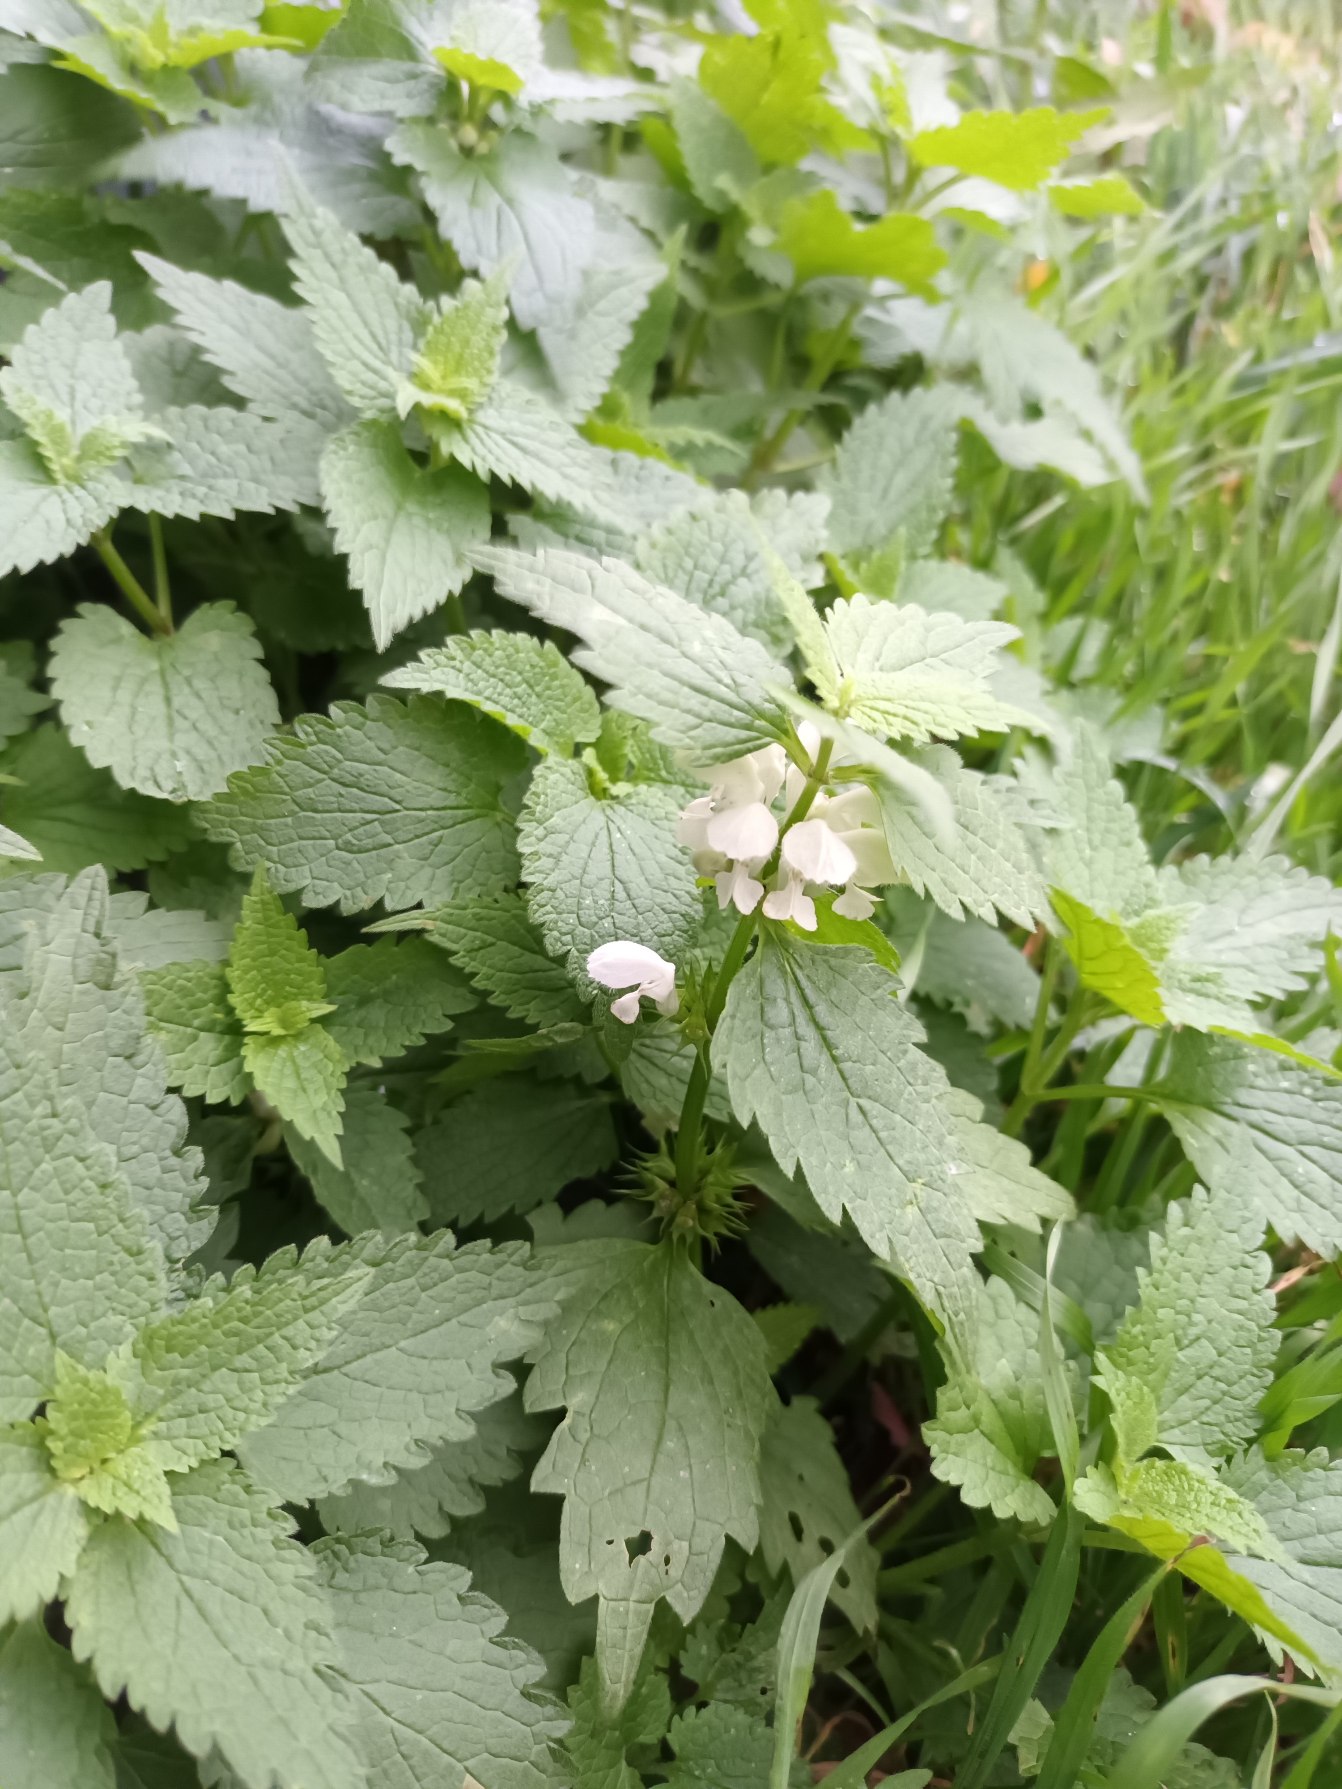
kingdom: Plantae
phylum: Tracheophyta
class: Magnoliopsida
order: Lamiales
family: Lamiaceae
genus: Lamium
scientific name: Lamium album
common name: Døvnælde
